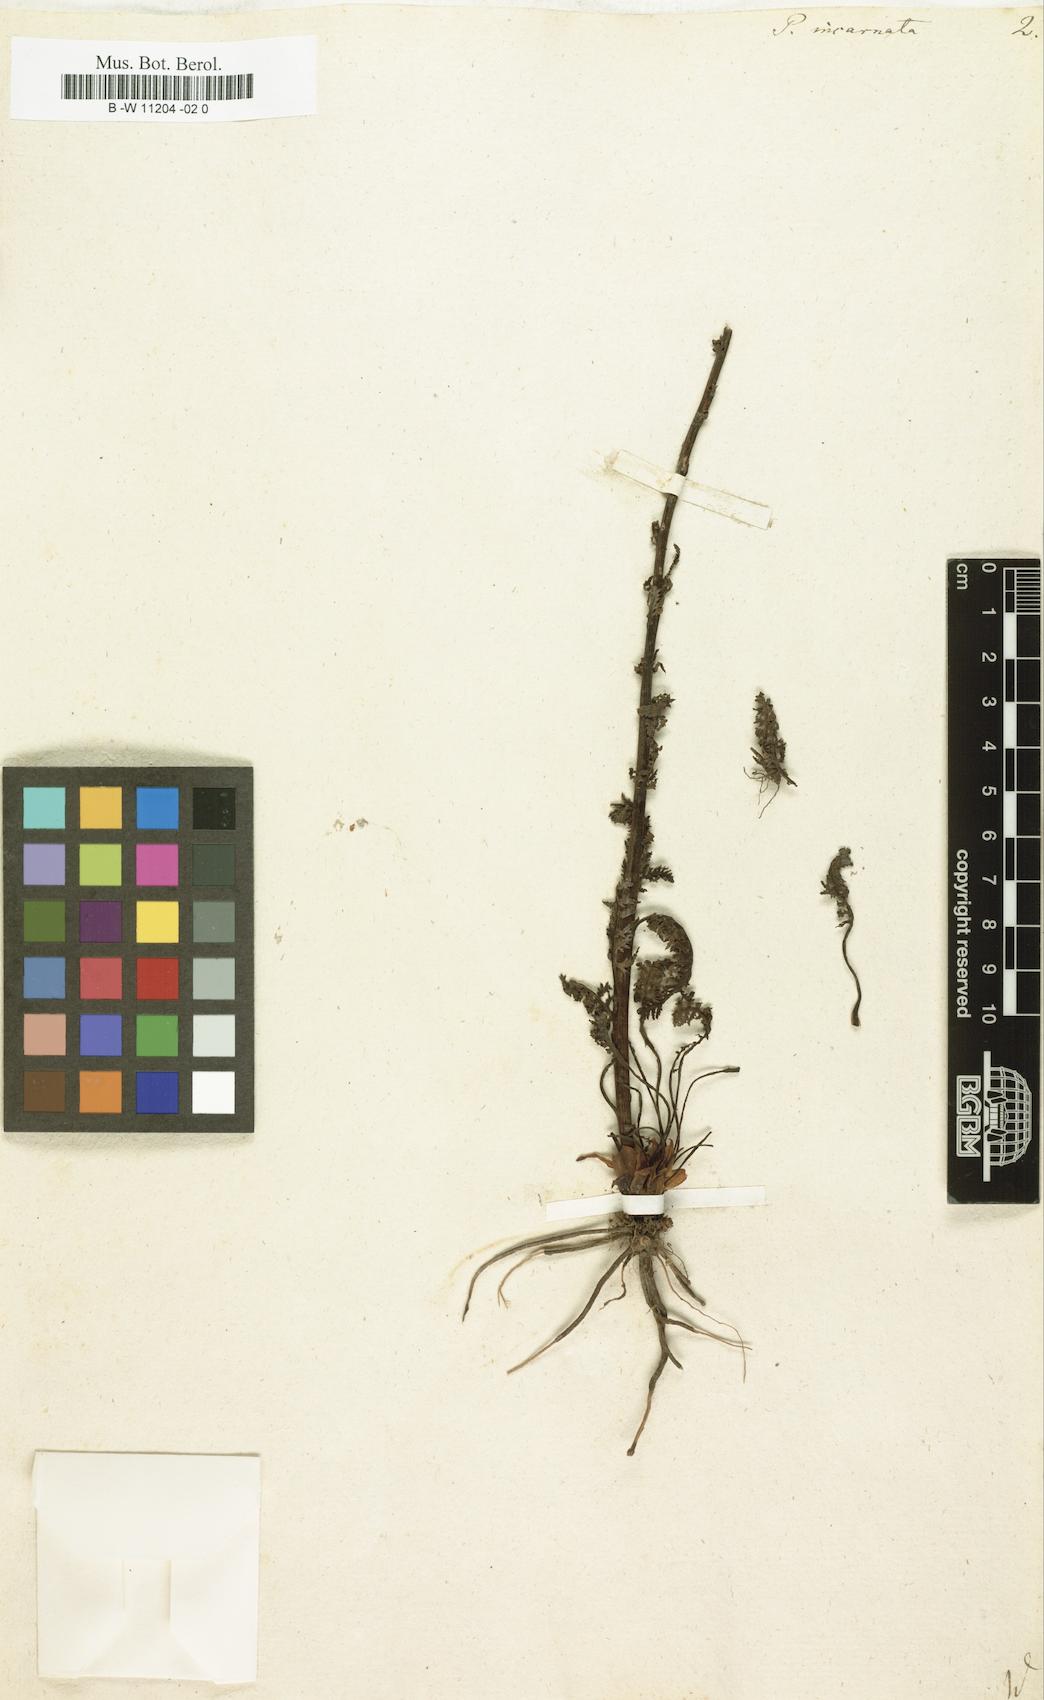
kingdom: Plantae
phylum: Tracheophyta
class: Magnoliopsida
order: Lamiales
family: Orobanchaceae
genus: Pedicularis
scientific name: Pedicularis incarnata
